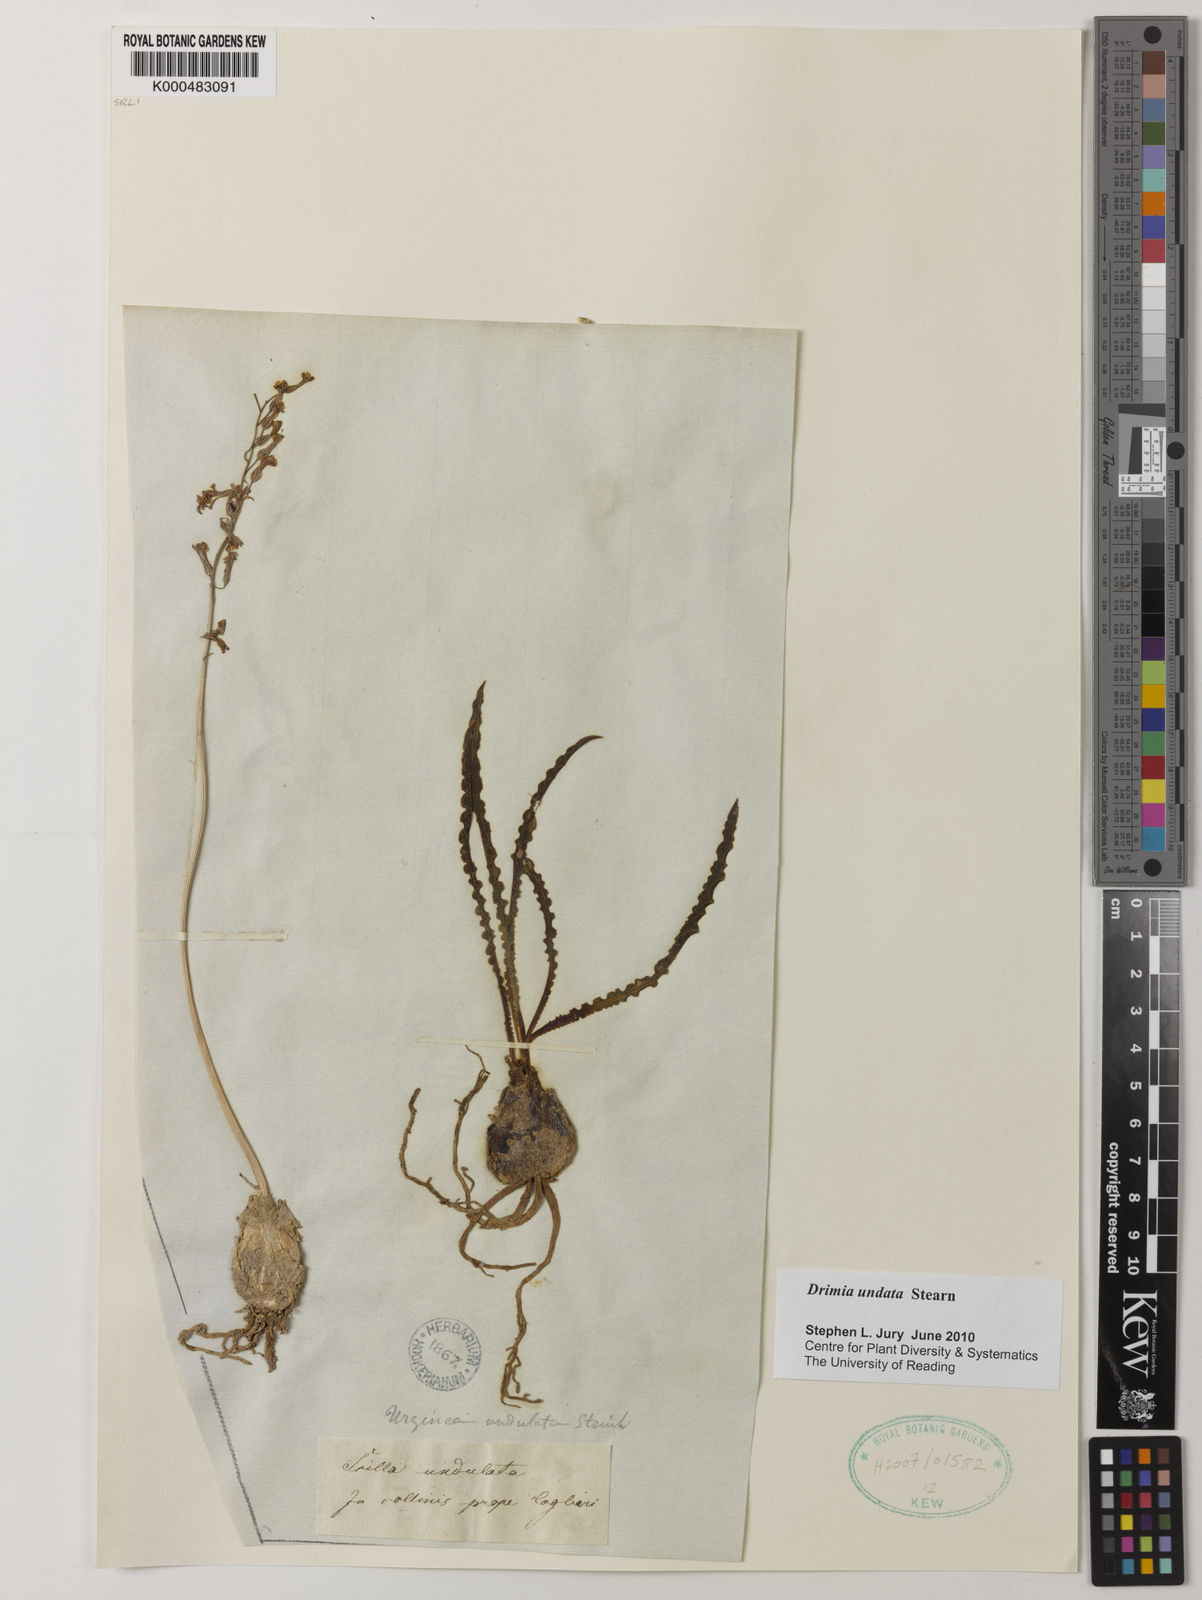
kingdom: Plantae
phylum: Tracheophyta
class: Liliopsida
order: Asparagales
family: Asparagaceae
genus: Drimia
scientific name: Drimia purpurascens
